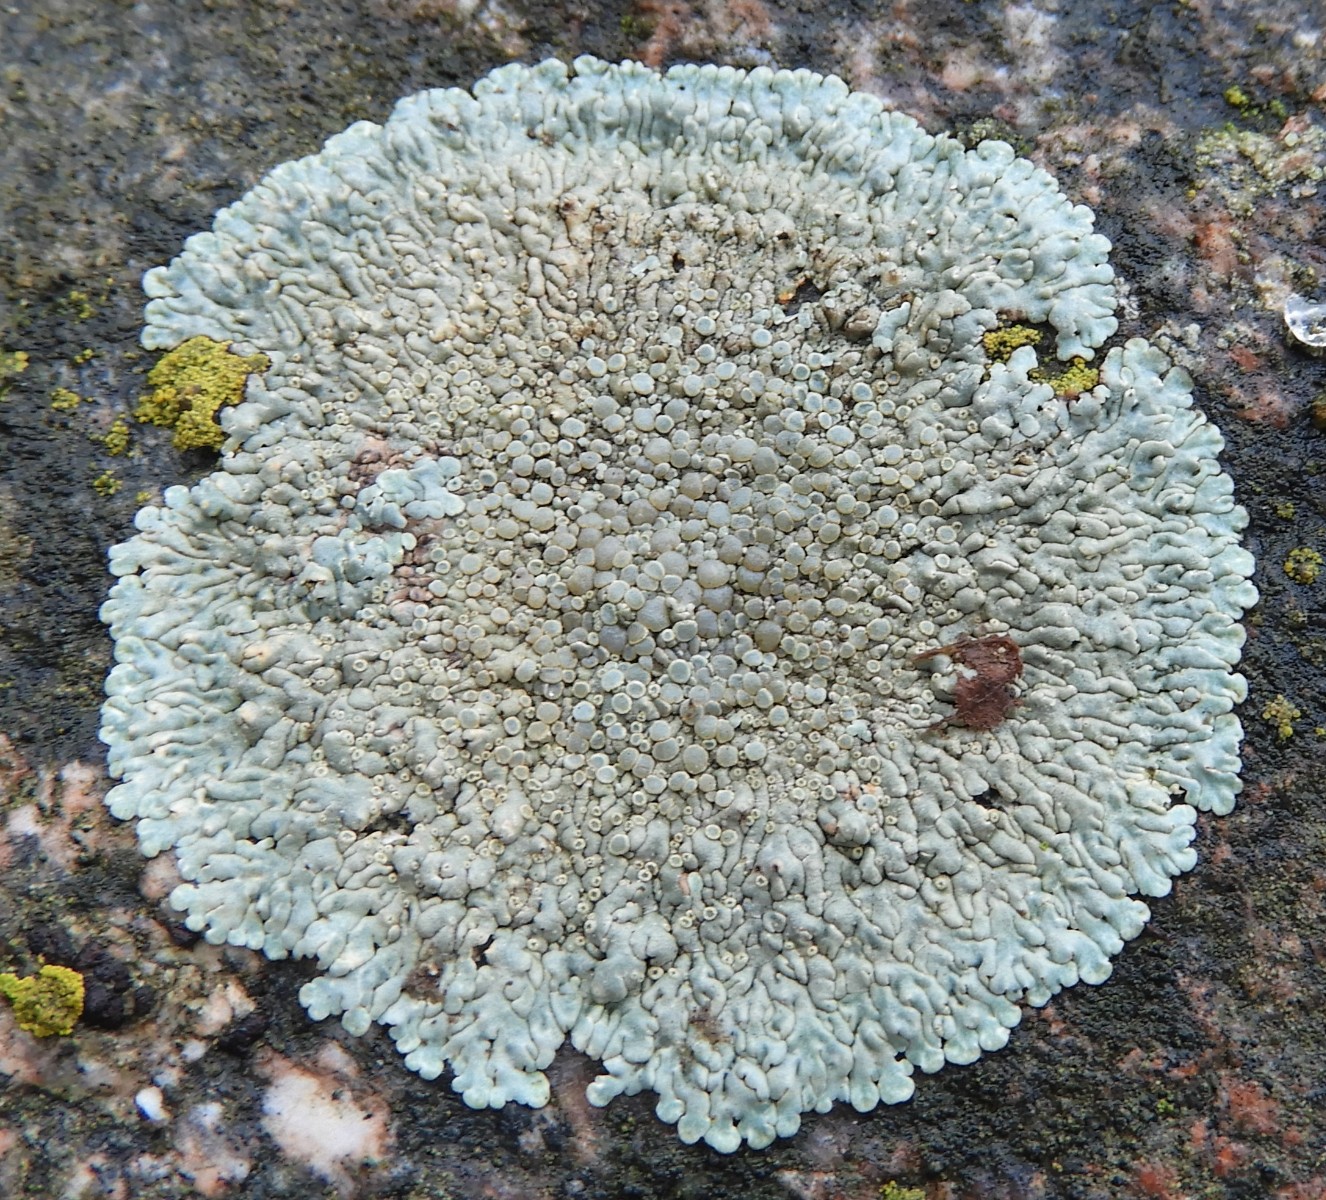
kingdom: Fungi
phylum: Ascomycota
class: Lecanoromycetes
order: Lecanorales
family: Lecanoraceae
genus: Protoparmeliopsis
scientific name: Protoparmeliopsis muralis
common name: randfliget kantskivelav
